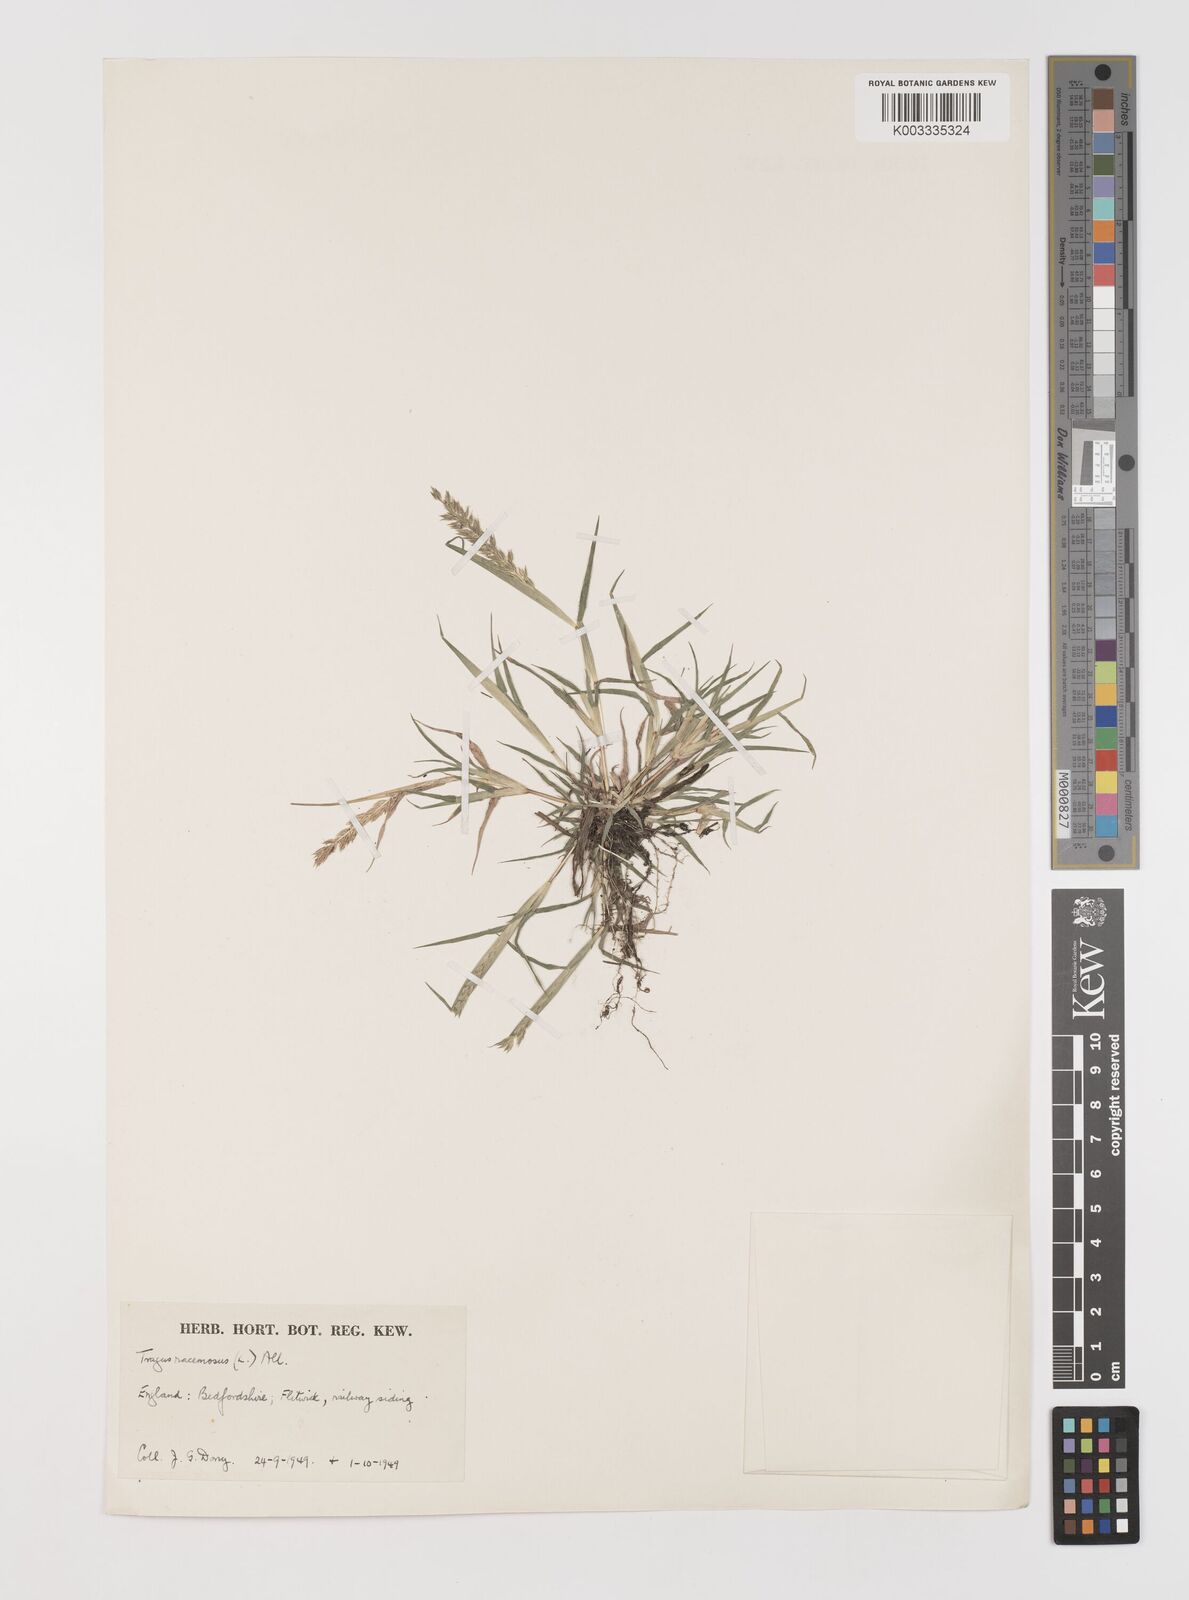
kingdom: Plantae
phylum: Tracheophyta
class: Liliopsida
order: Poales
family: Poaceae
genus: Tragus
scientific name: Tragus racemosus
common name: European bur-grass
